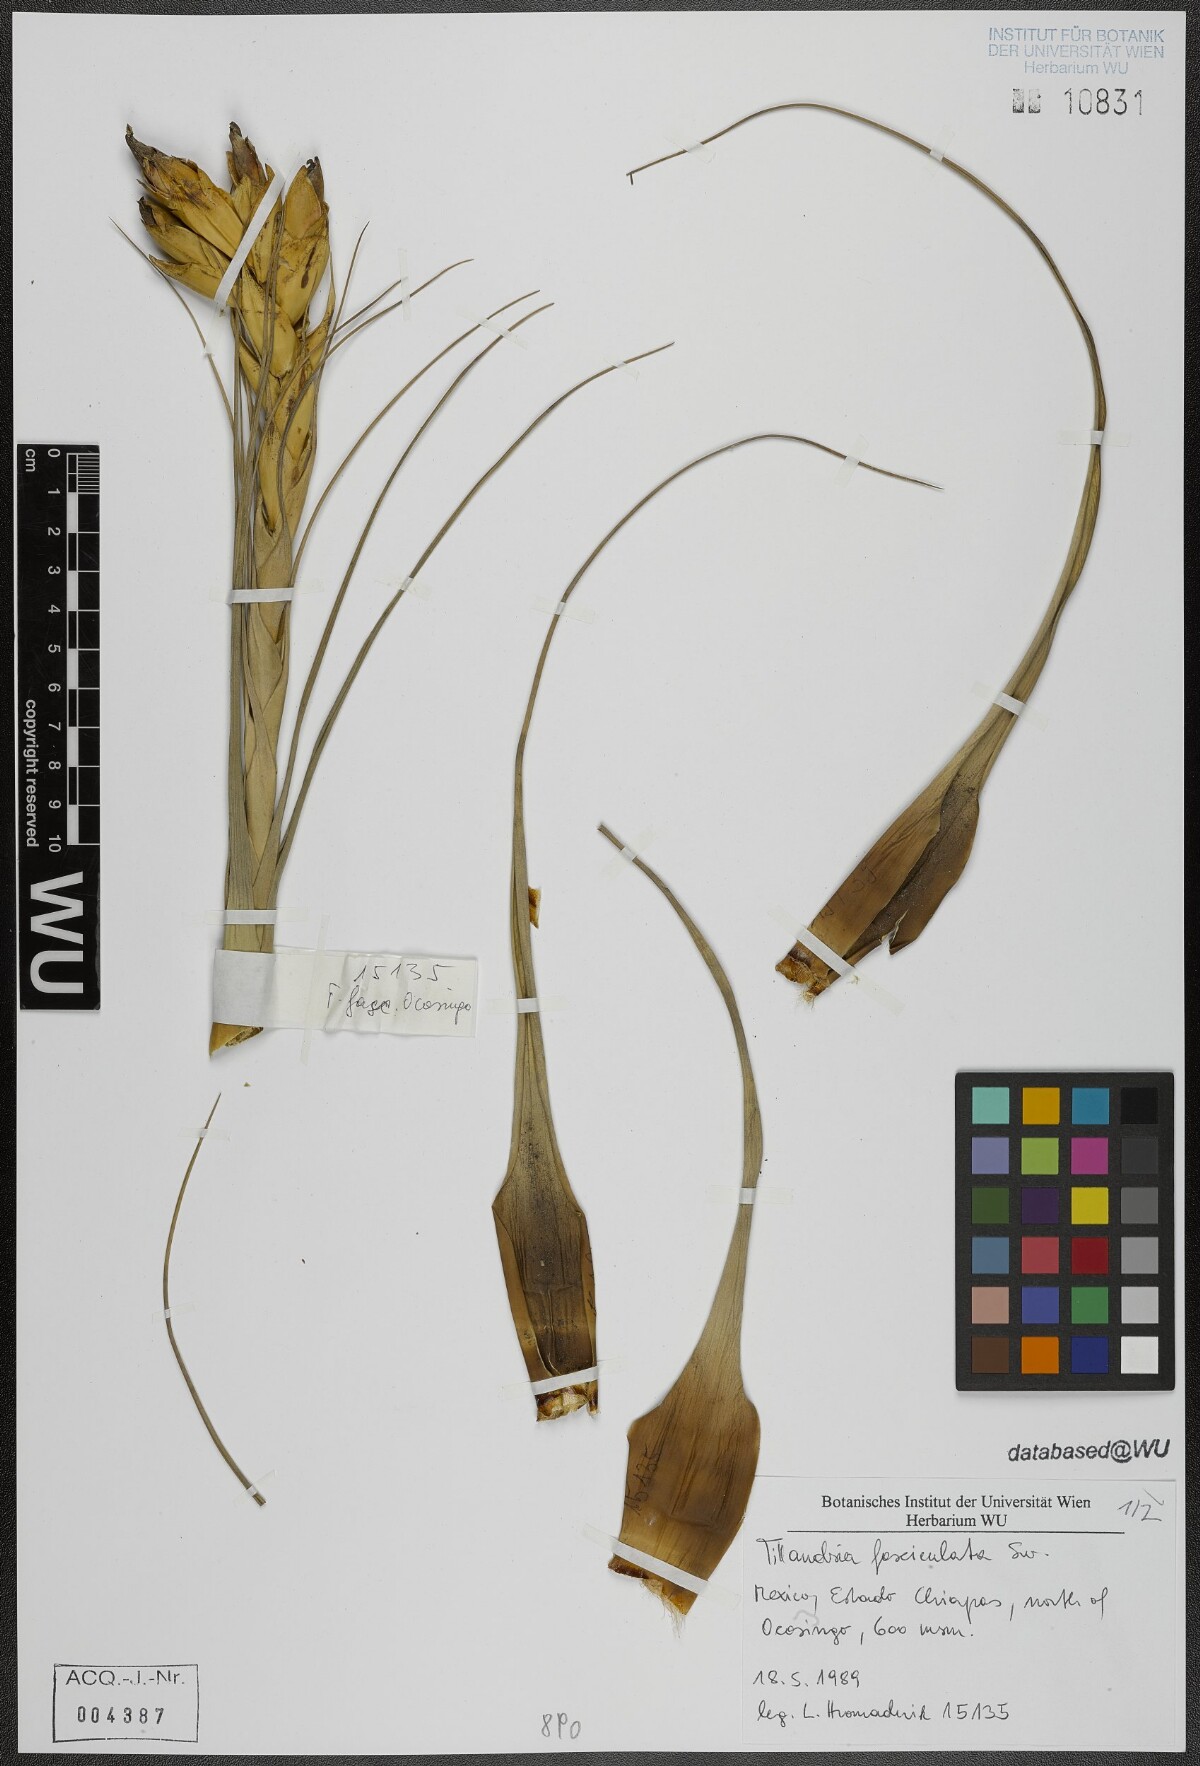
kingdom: Plantae
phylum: Tracheophyta
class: Liliopsida
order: Poales
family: Bromeliaceae
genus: Tillandsia
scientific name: Tillandsia fasciculata
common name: Giant airplant
